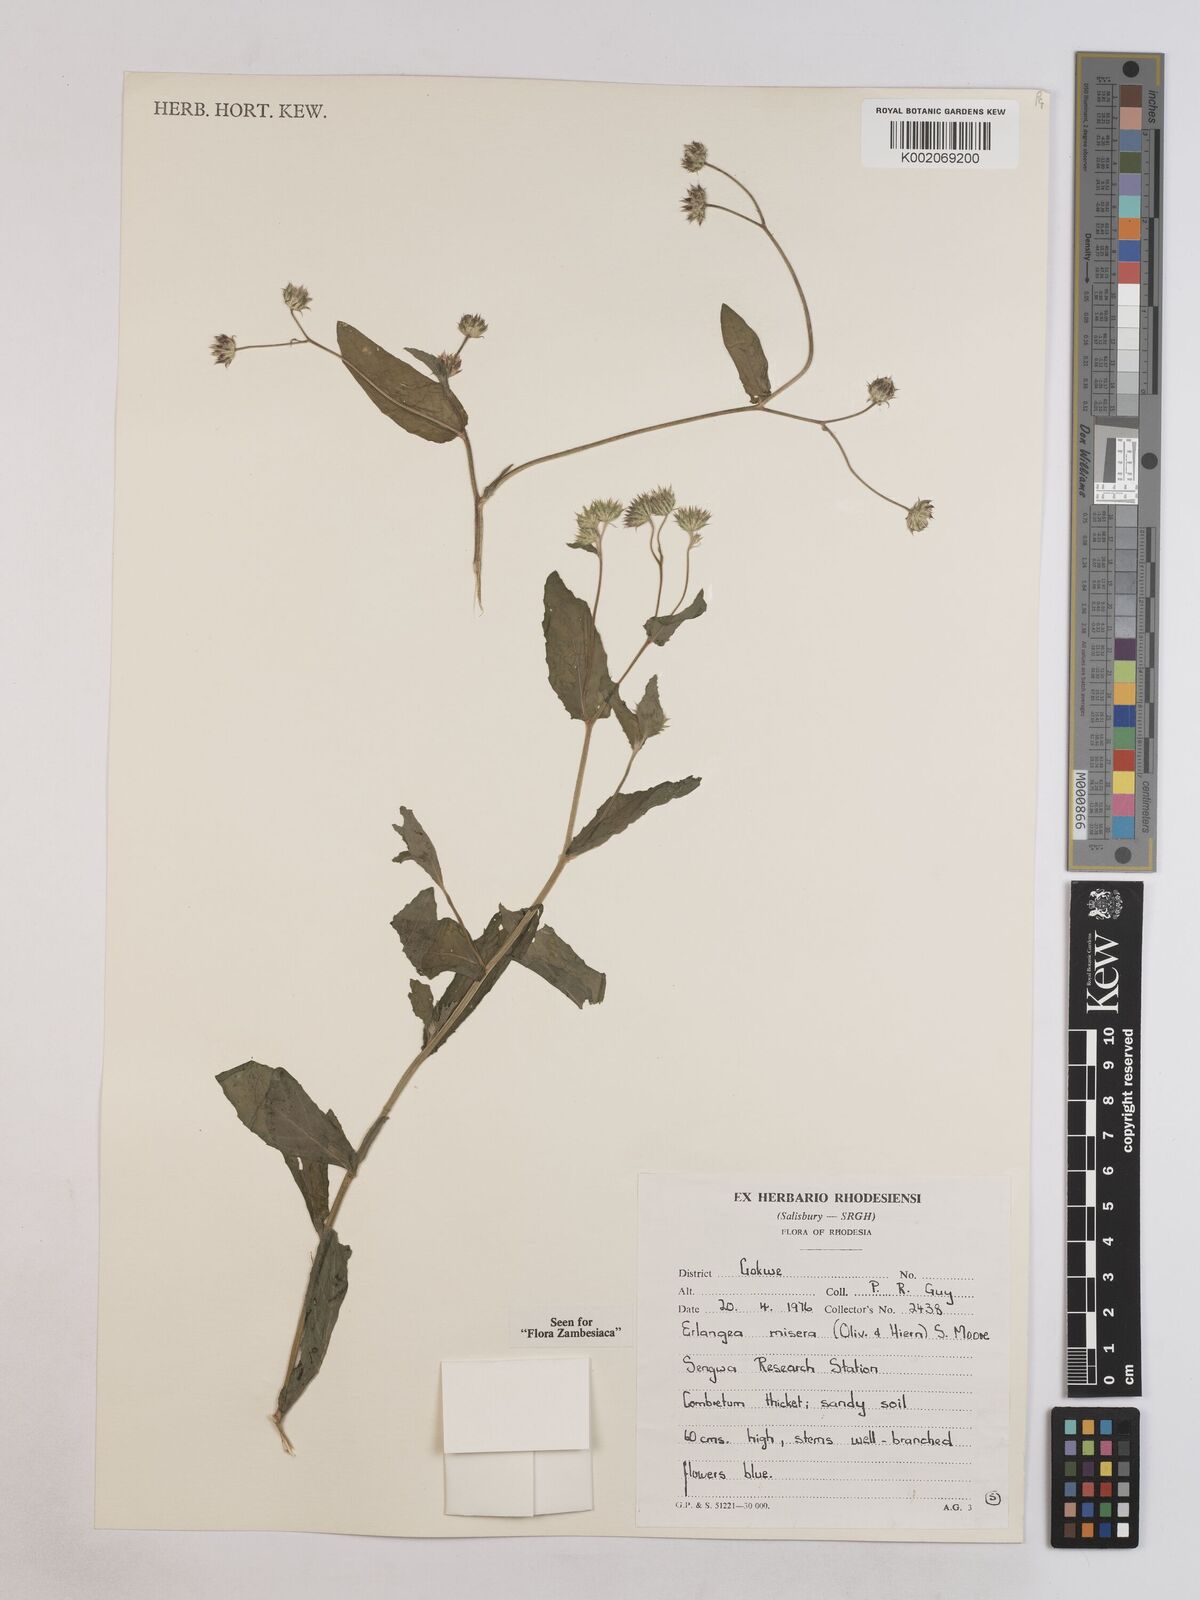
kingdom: Plantae
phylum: Tracheophyta
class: Magnoliopsida
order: Asterales
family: Asteraceae
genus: Erlangea
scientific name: Erlangea misera
